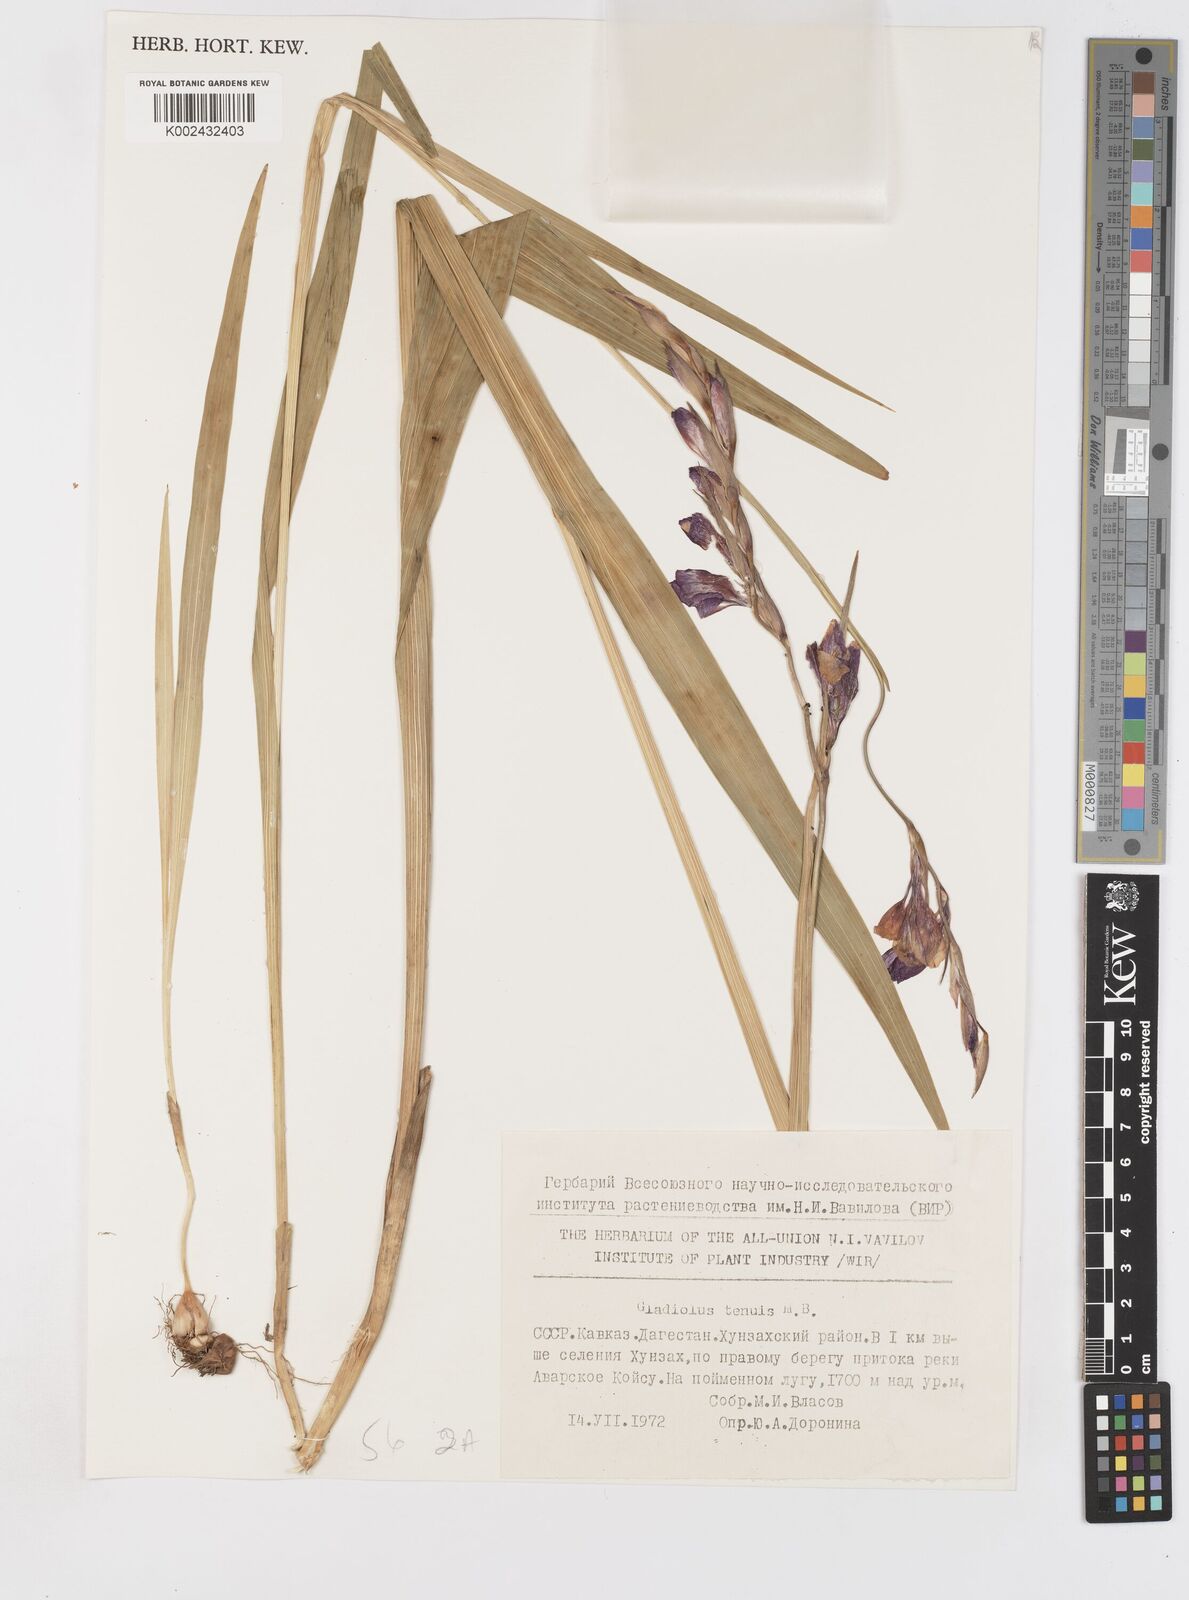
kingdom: Plantae
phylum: Tracheophyta
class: Liliopsida
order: Asparagales
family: Iridaceae
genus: Gladiolus
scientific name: Gladiolus crispulatus
